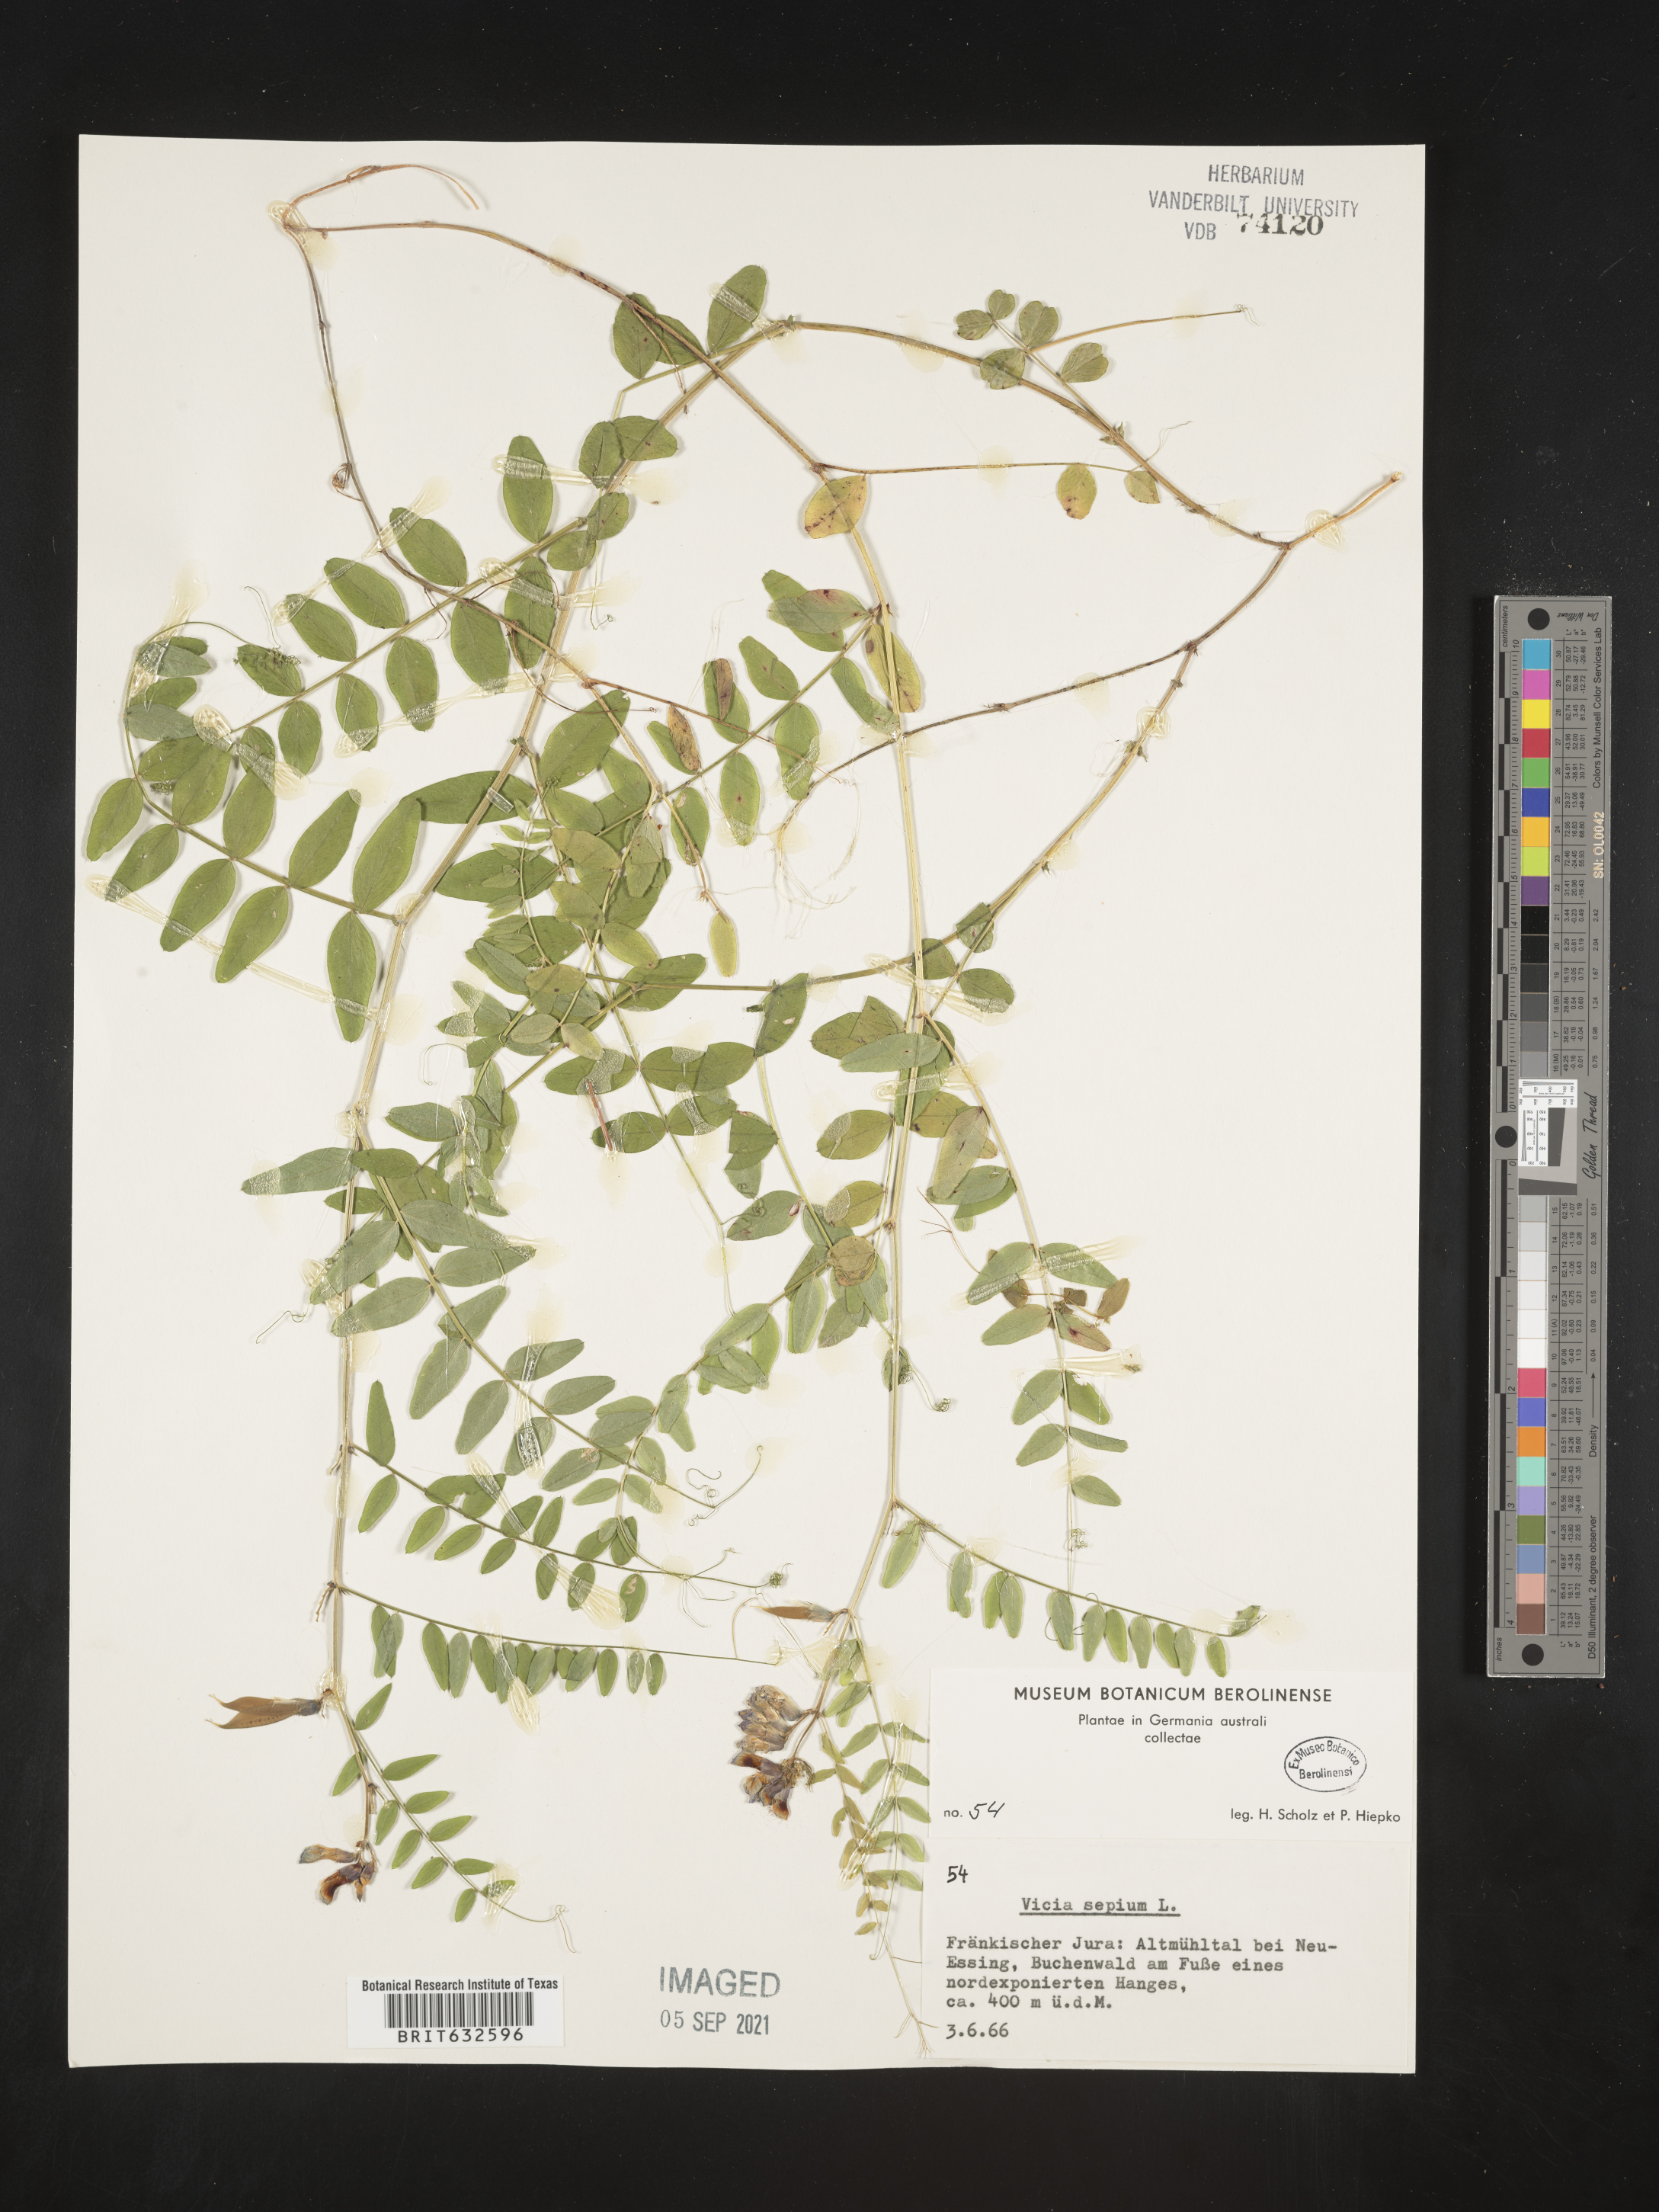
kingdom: Plantae
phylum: Tracheophyta
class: Magnoliopsida
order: Fabales
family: Fabaceae
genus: Vicia
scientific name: Vicia
